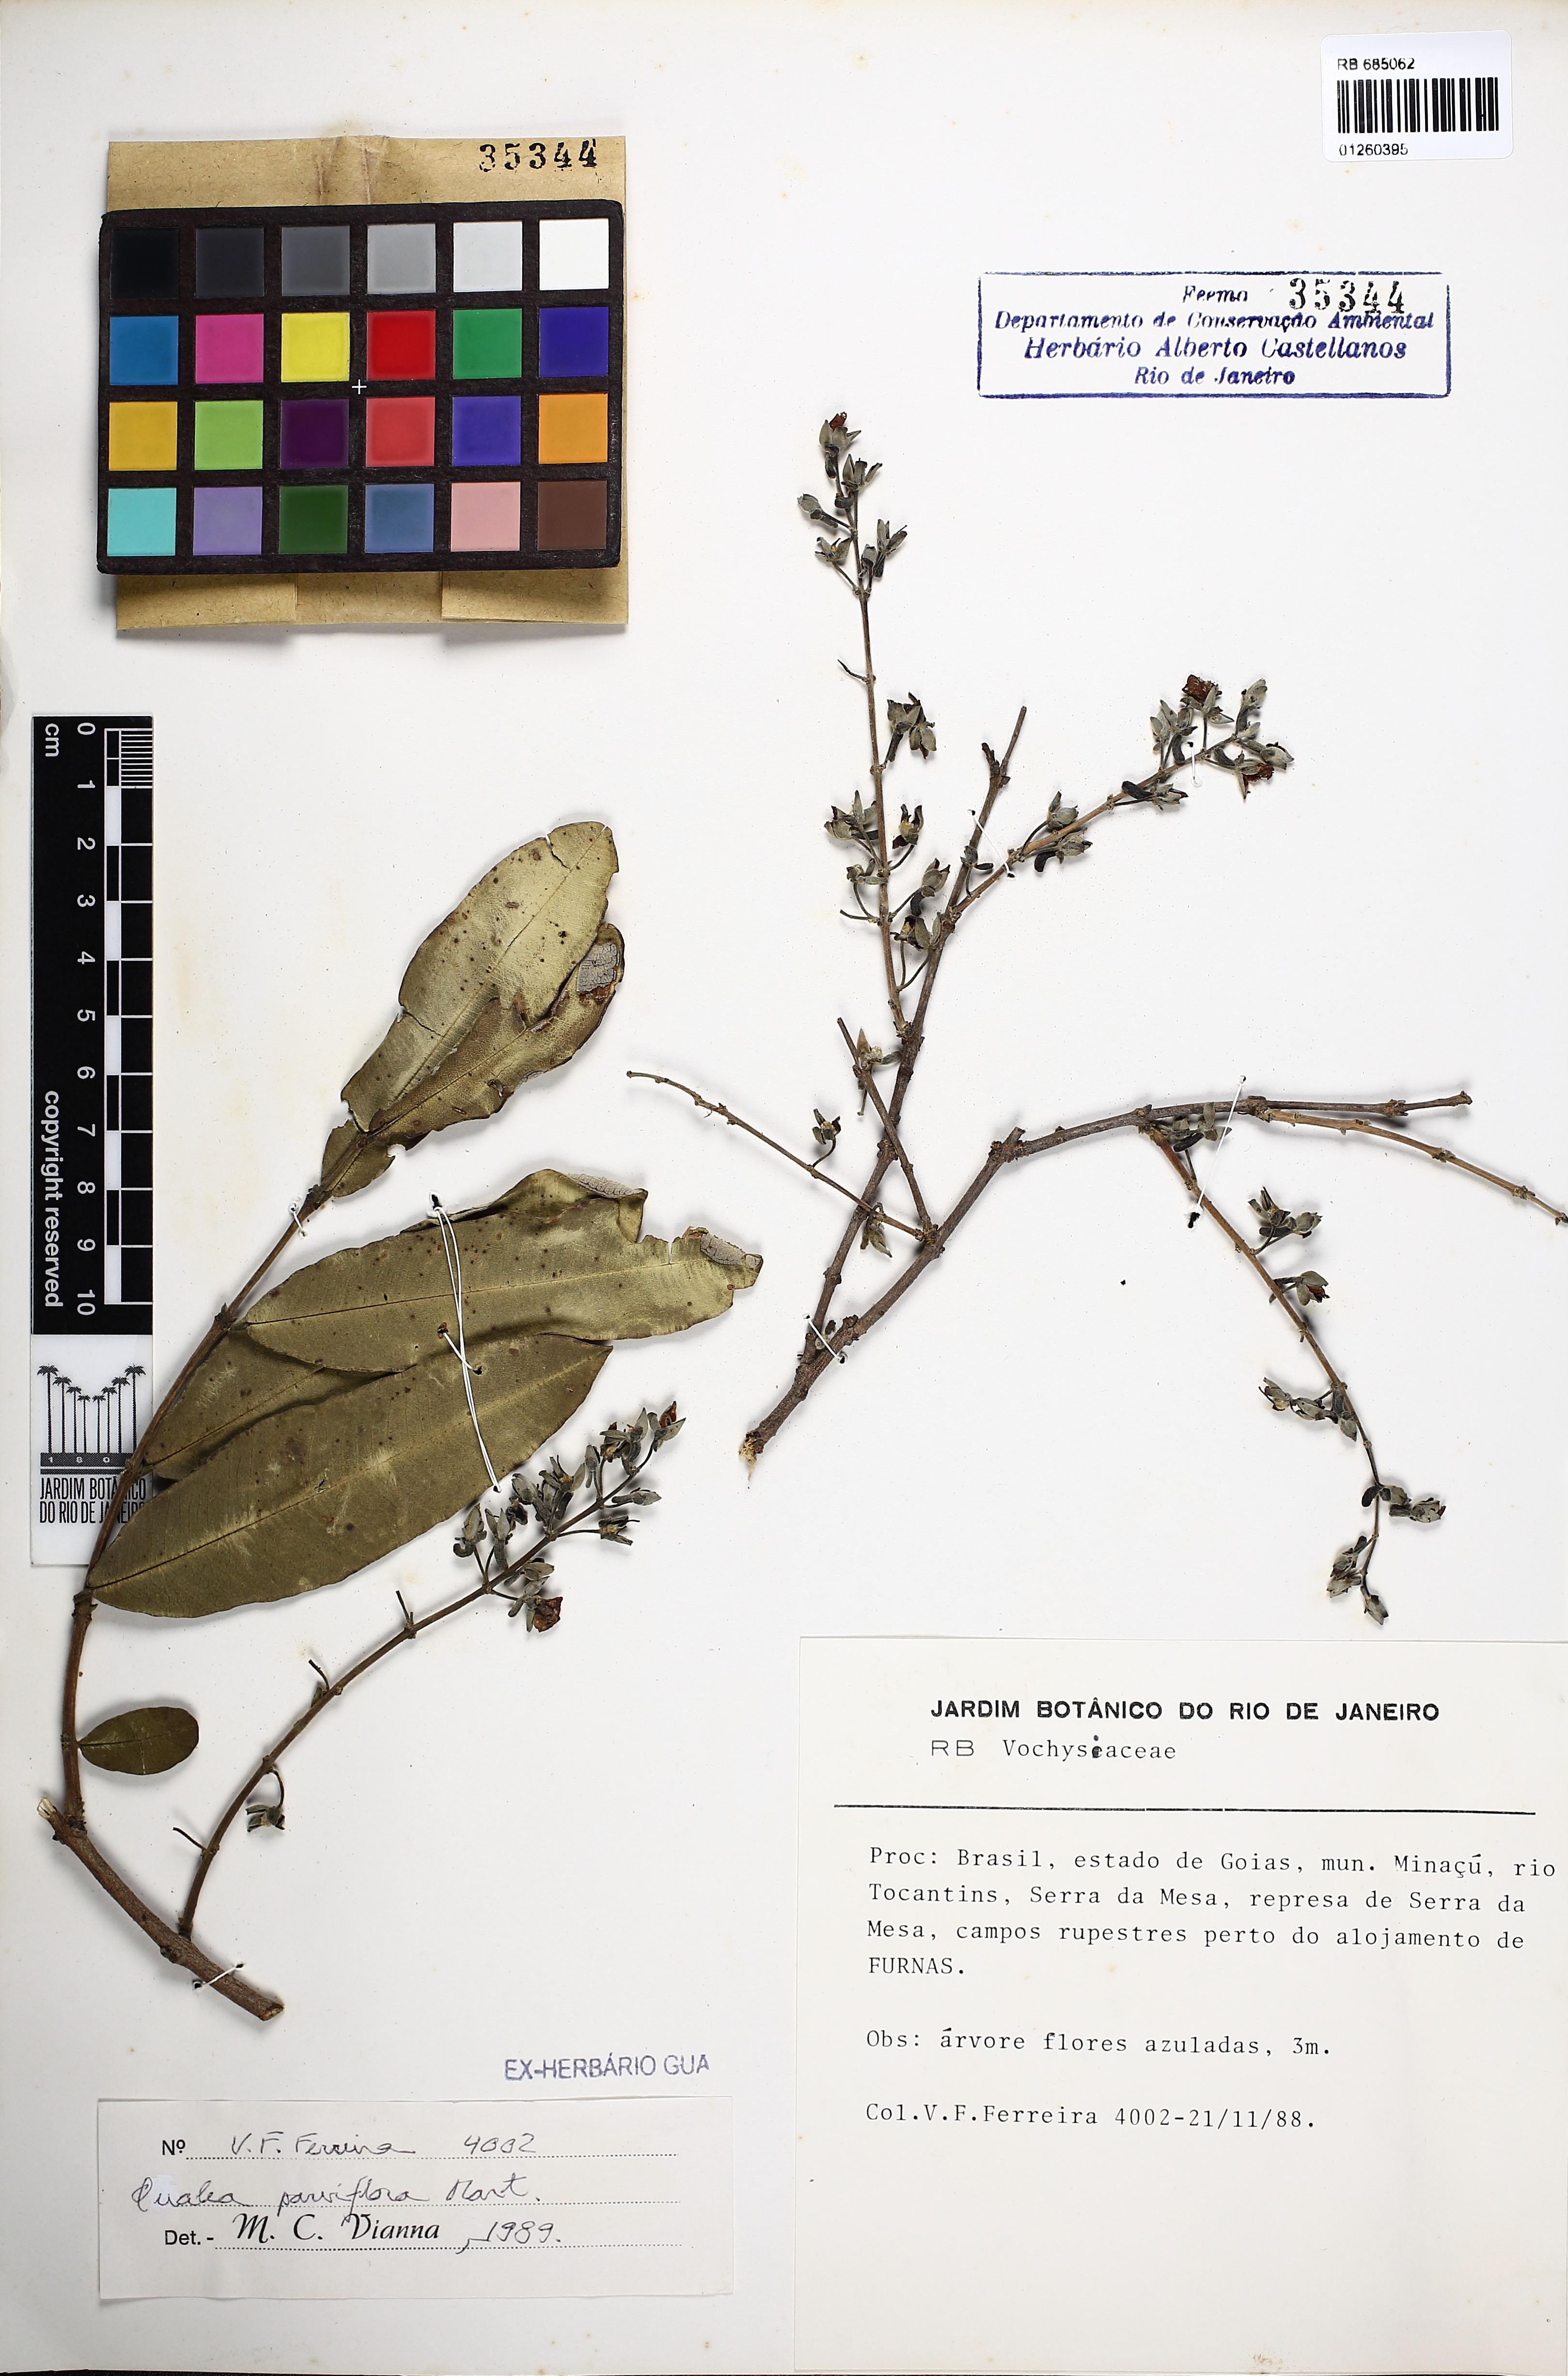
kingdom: Plantae
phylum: Tracheophyta
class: Magnoliopsida
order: Myrtales
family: Vochysiaceae
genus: Qualea
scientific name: Qualea parviflora
